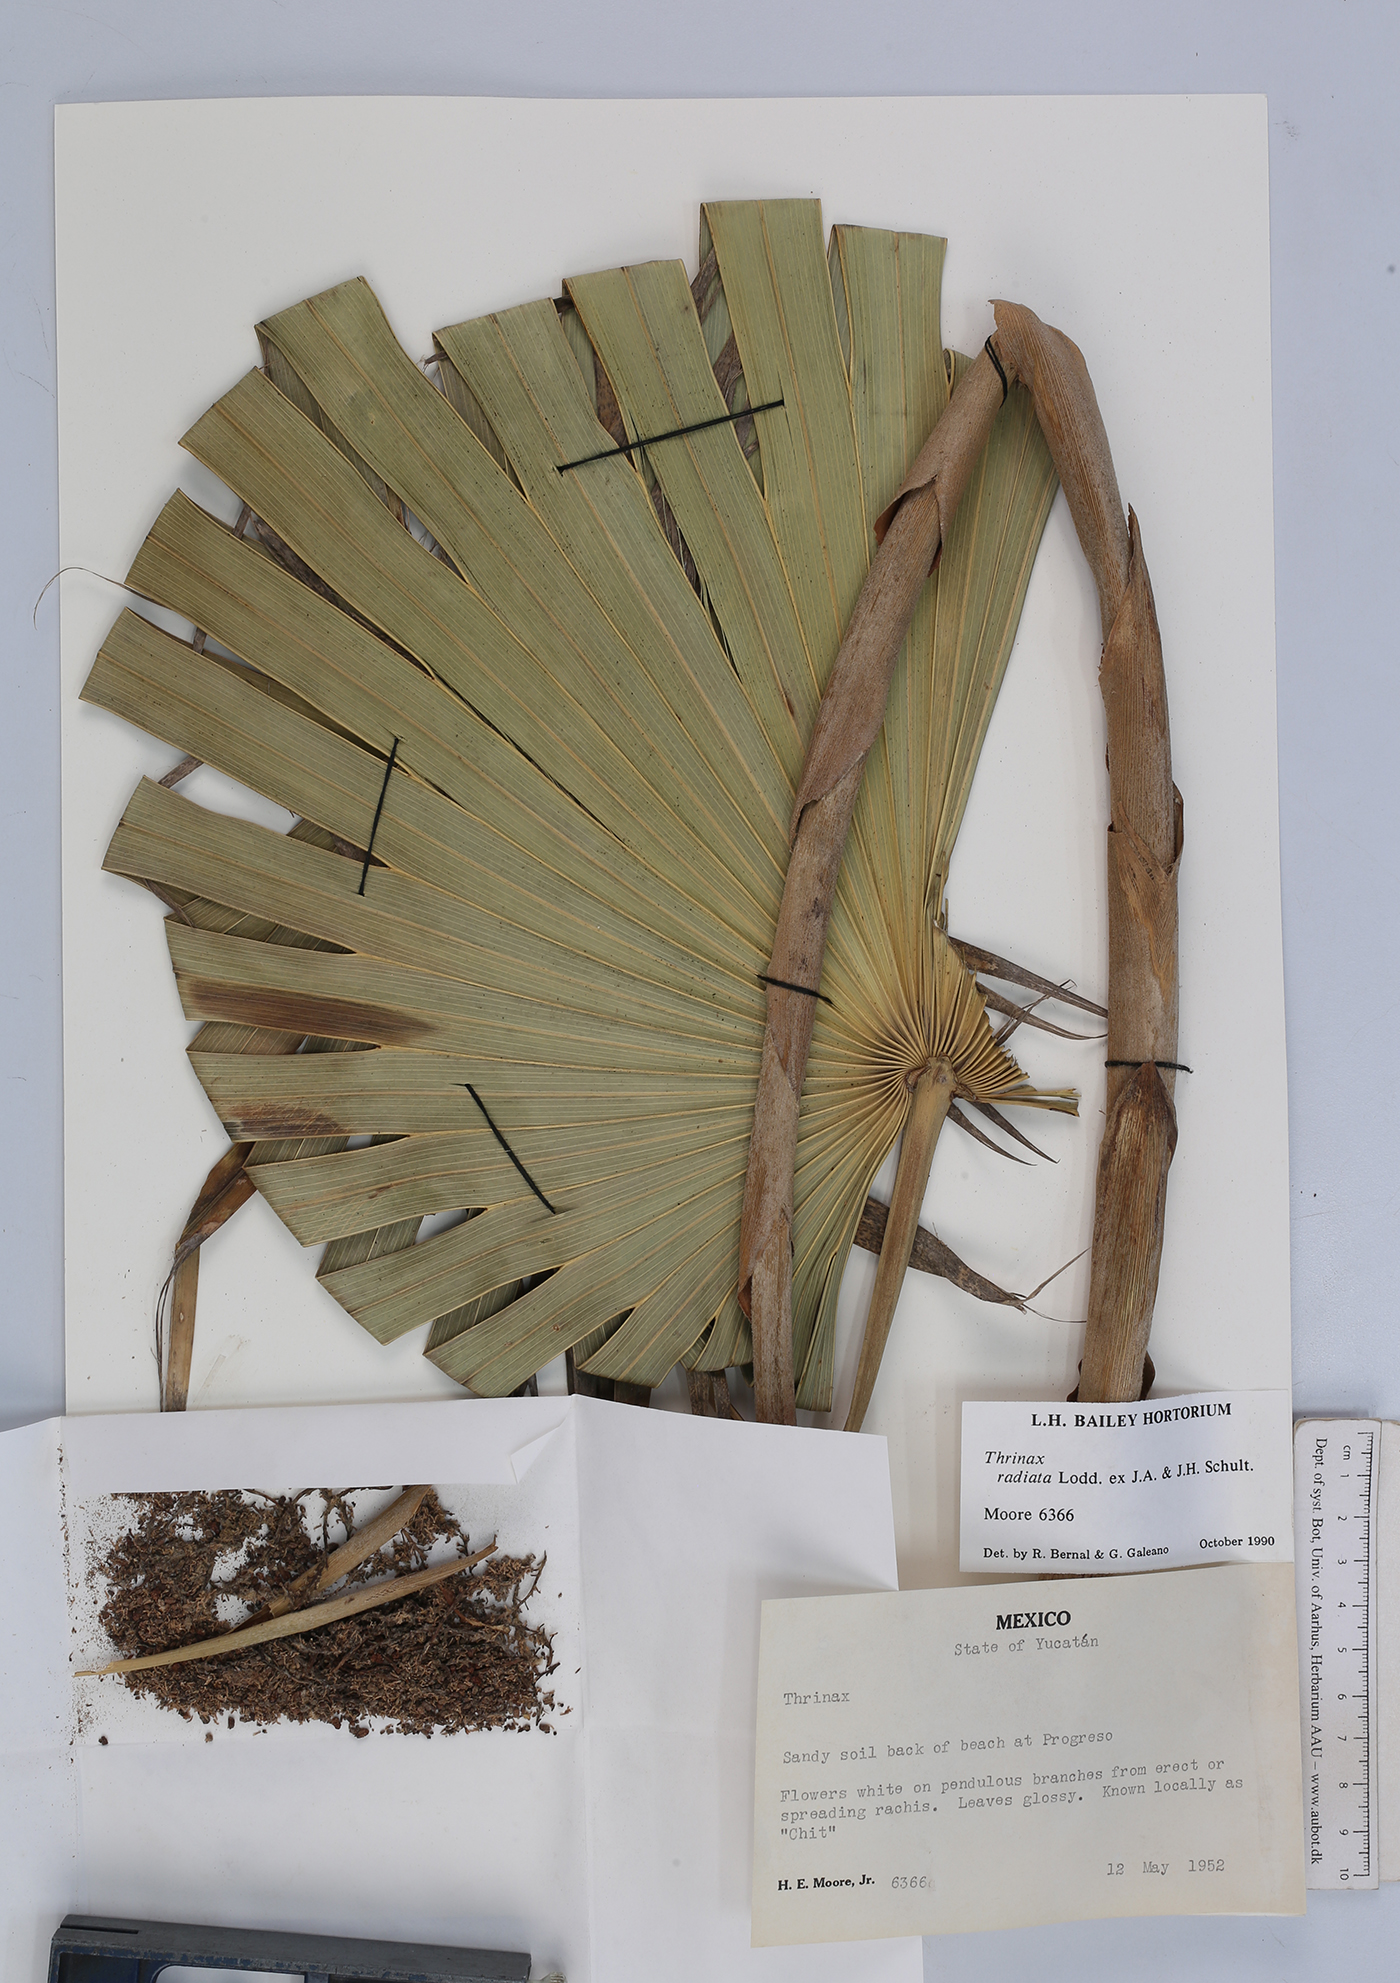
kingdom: Plantae
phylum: Tracheophyta
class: Liliopsida
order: Arecales
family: Arecaceae
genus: Thrinax
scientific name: Thrinax radiata
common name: Florida thatch
